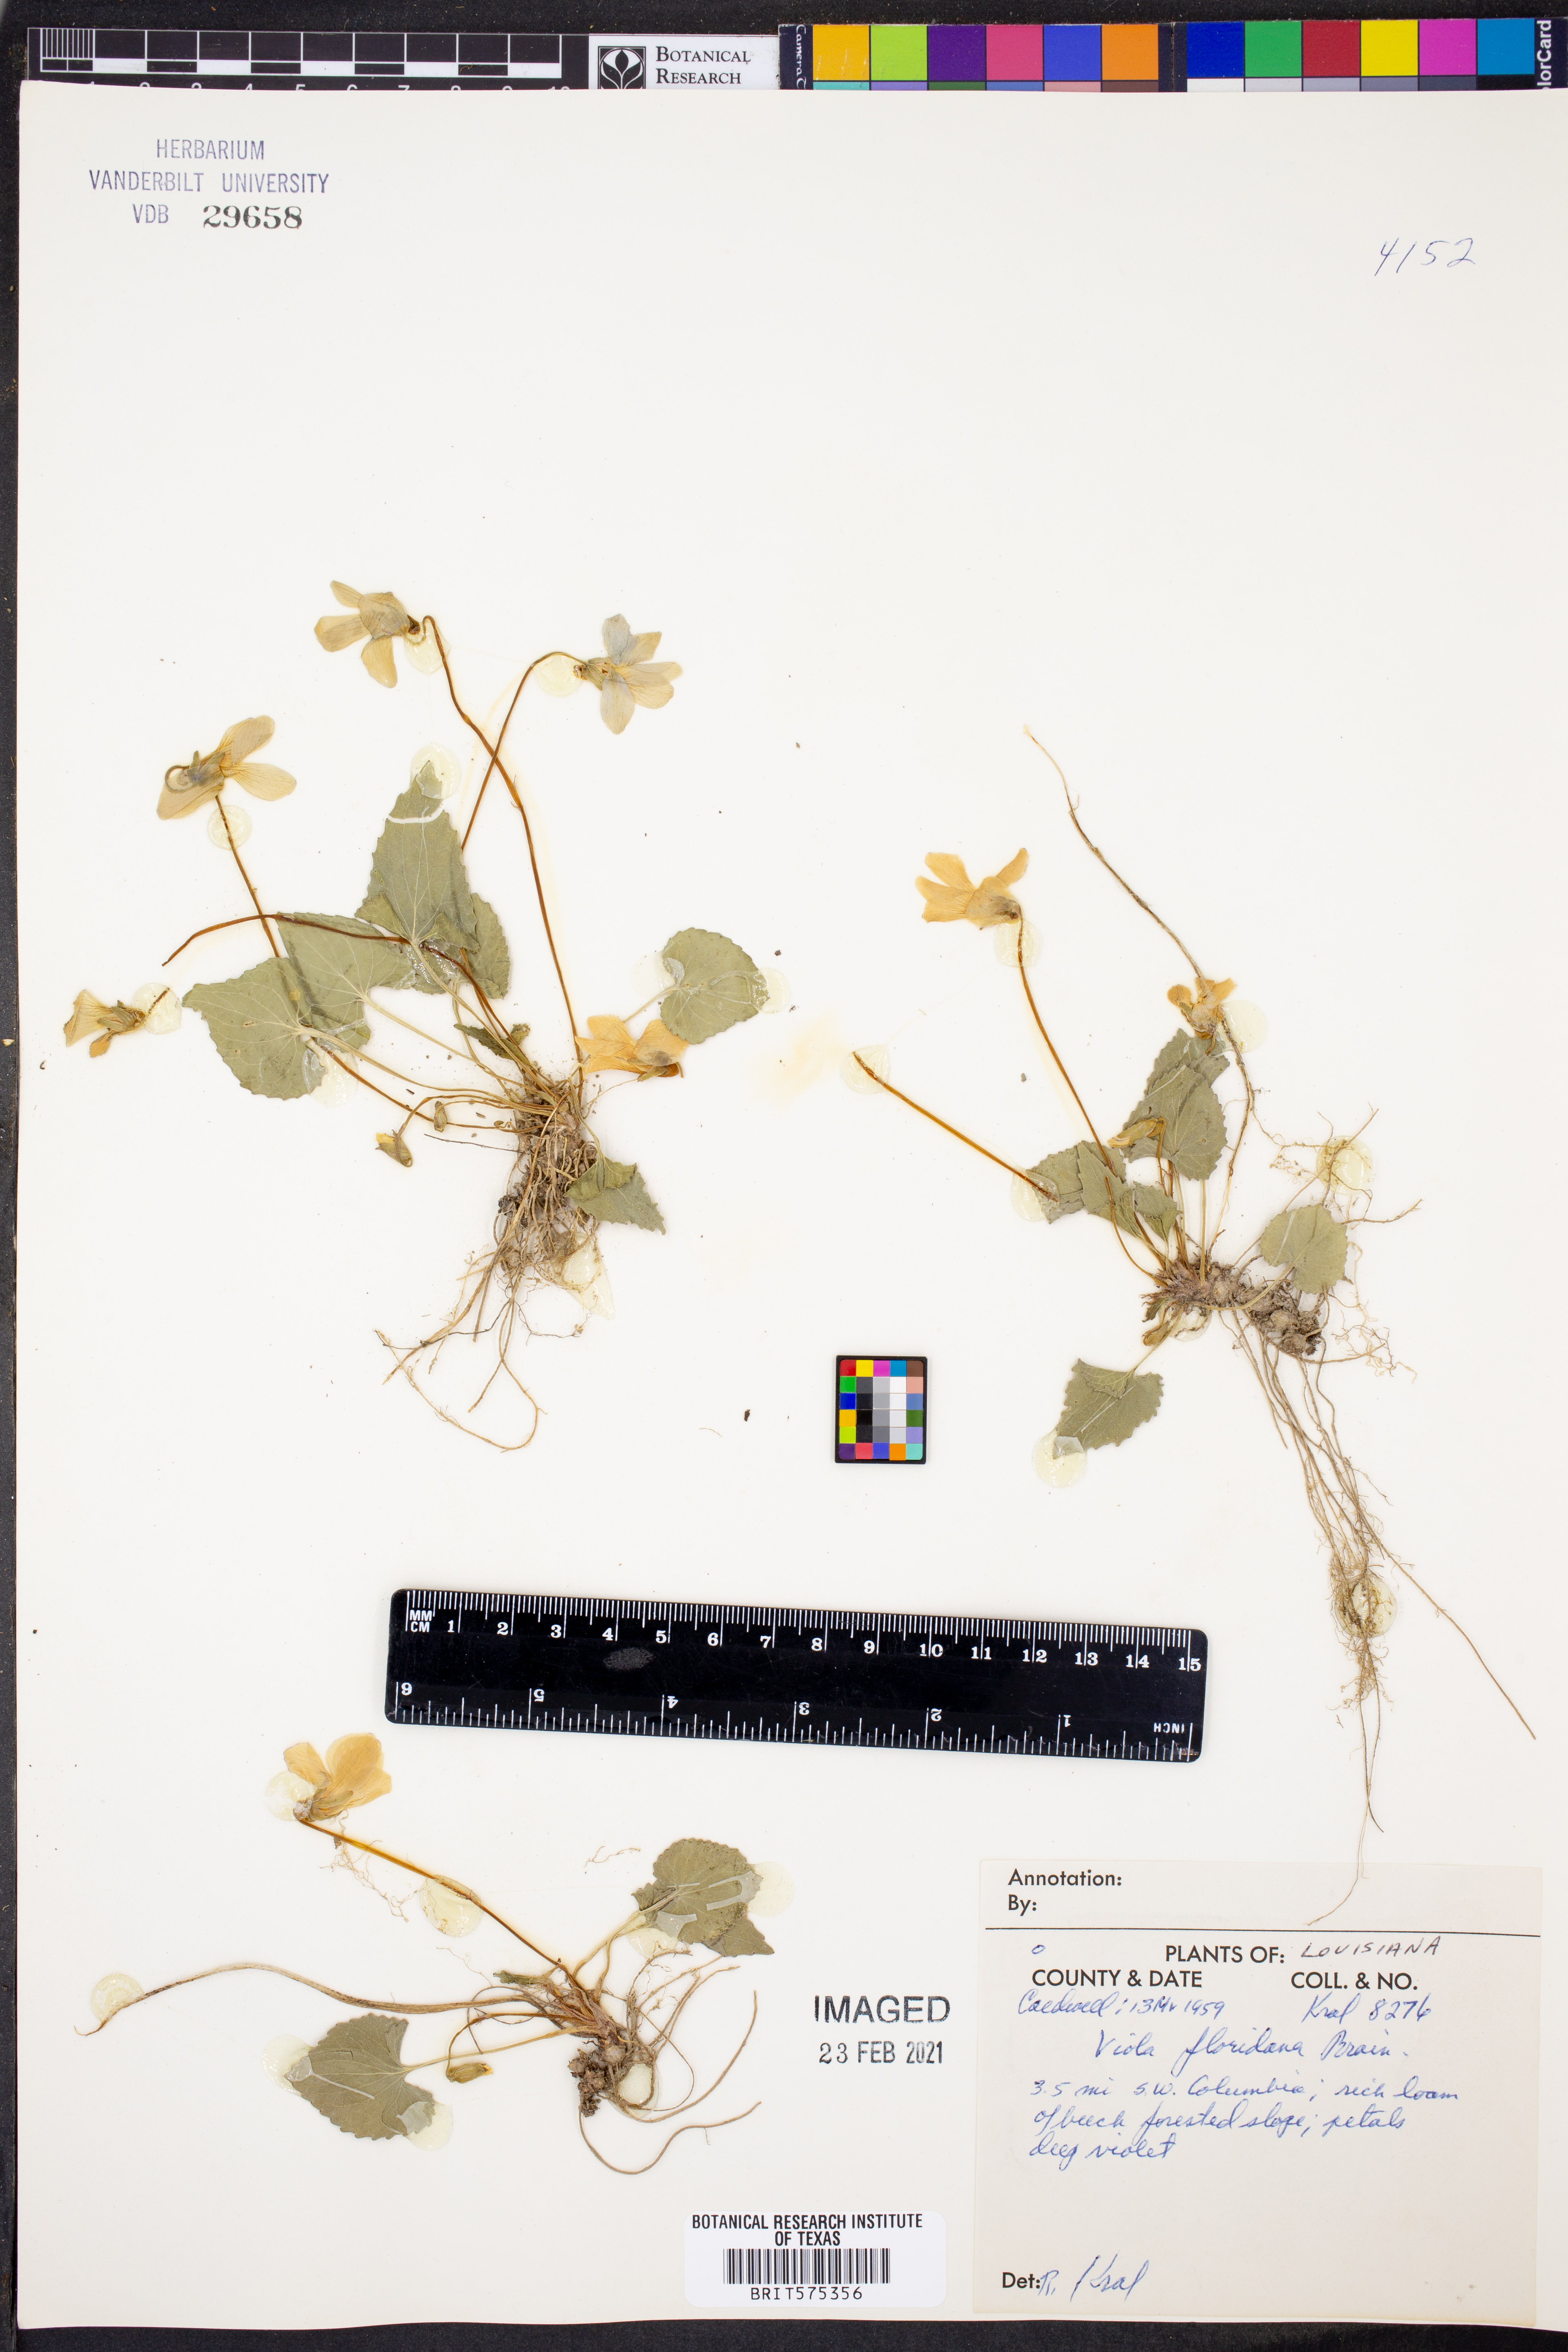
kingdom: Plantae
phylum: Tracheophyta
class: Magnoliopsida
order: Malpighiales
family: Violaceae
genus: Viola
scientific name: Viola floridana
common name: Florida violet
